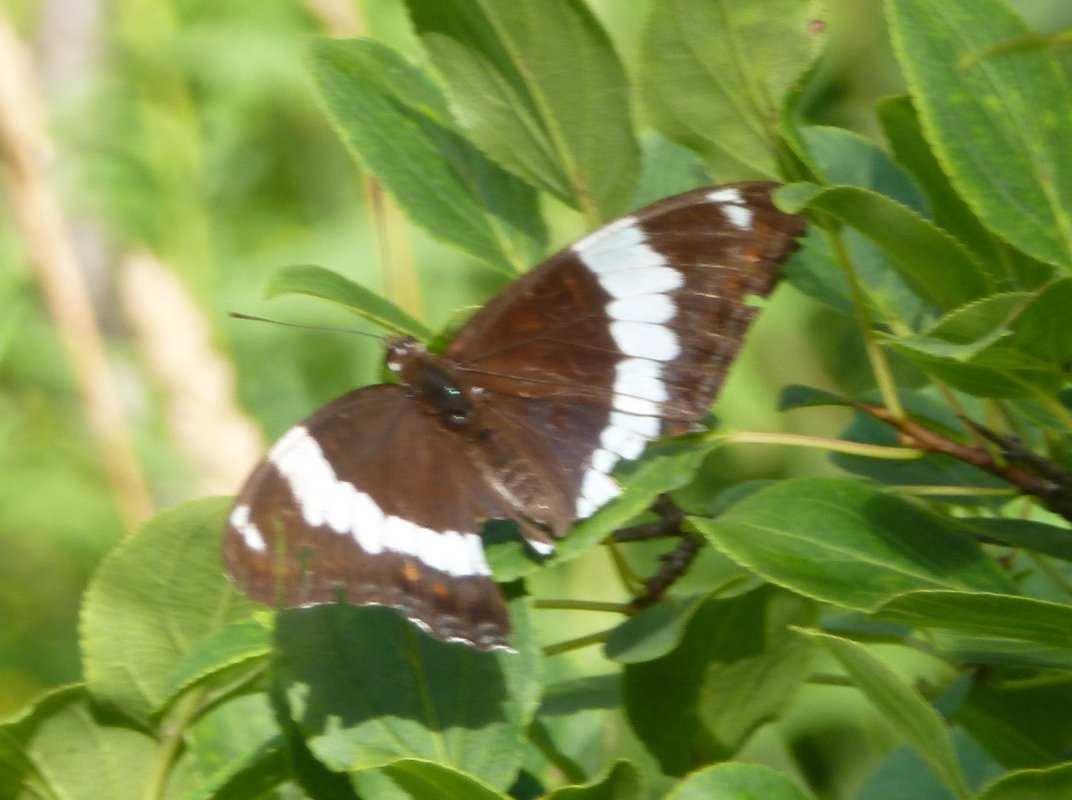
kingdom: Animalia
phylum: Arthropoda
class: Insecta
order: Lepidoptera
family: Nymphalidae
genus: Limenitis
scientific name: Limenitis arthemis
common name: Red-spotted Admiral
